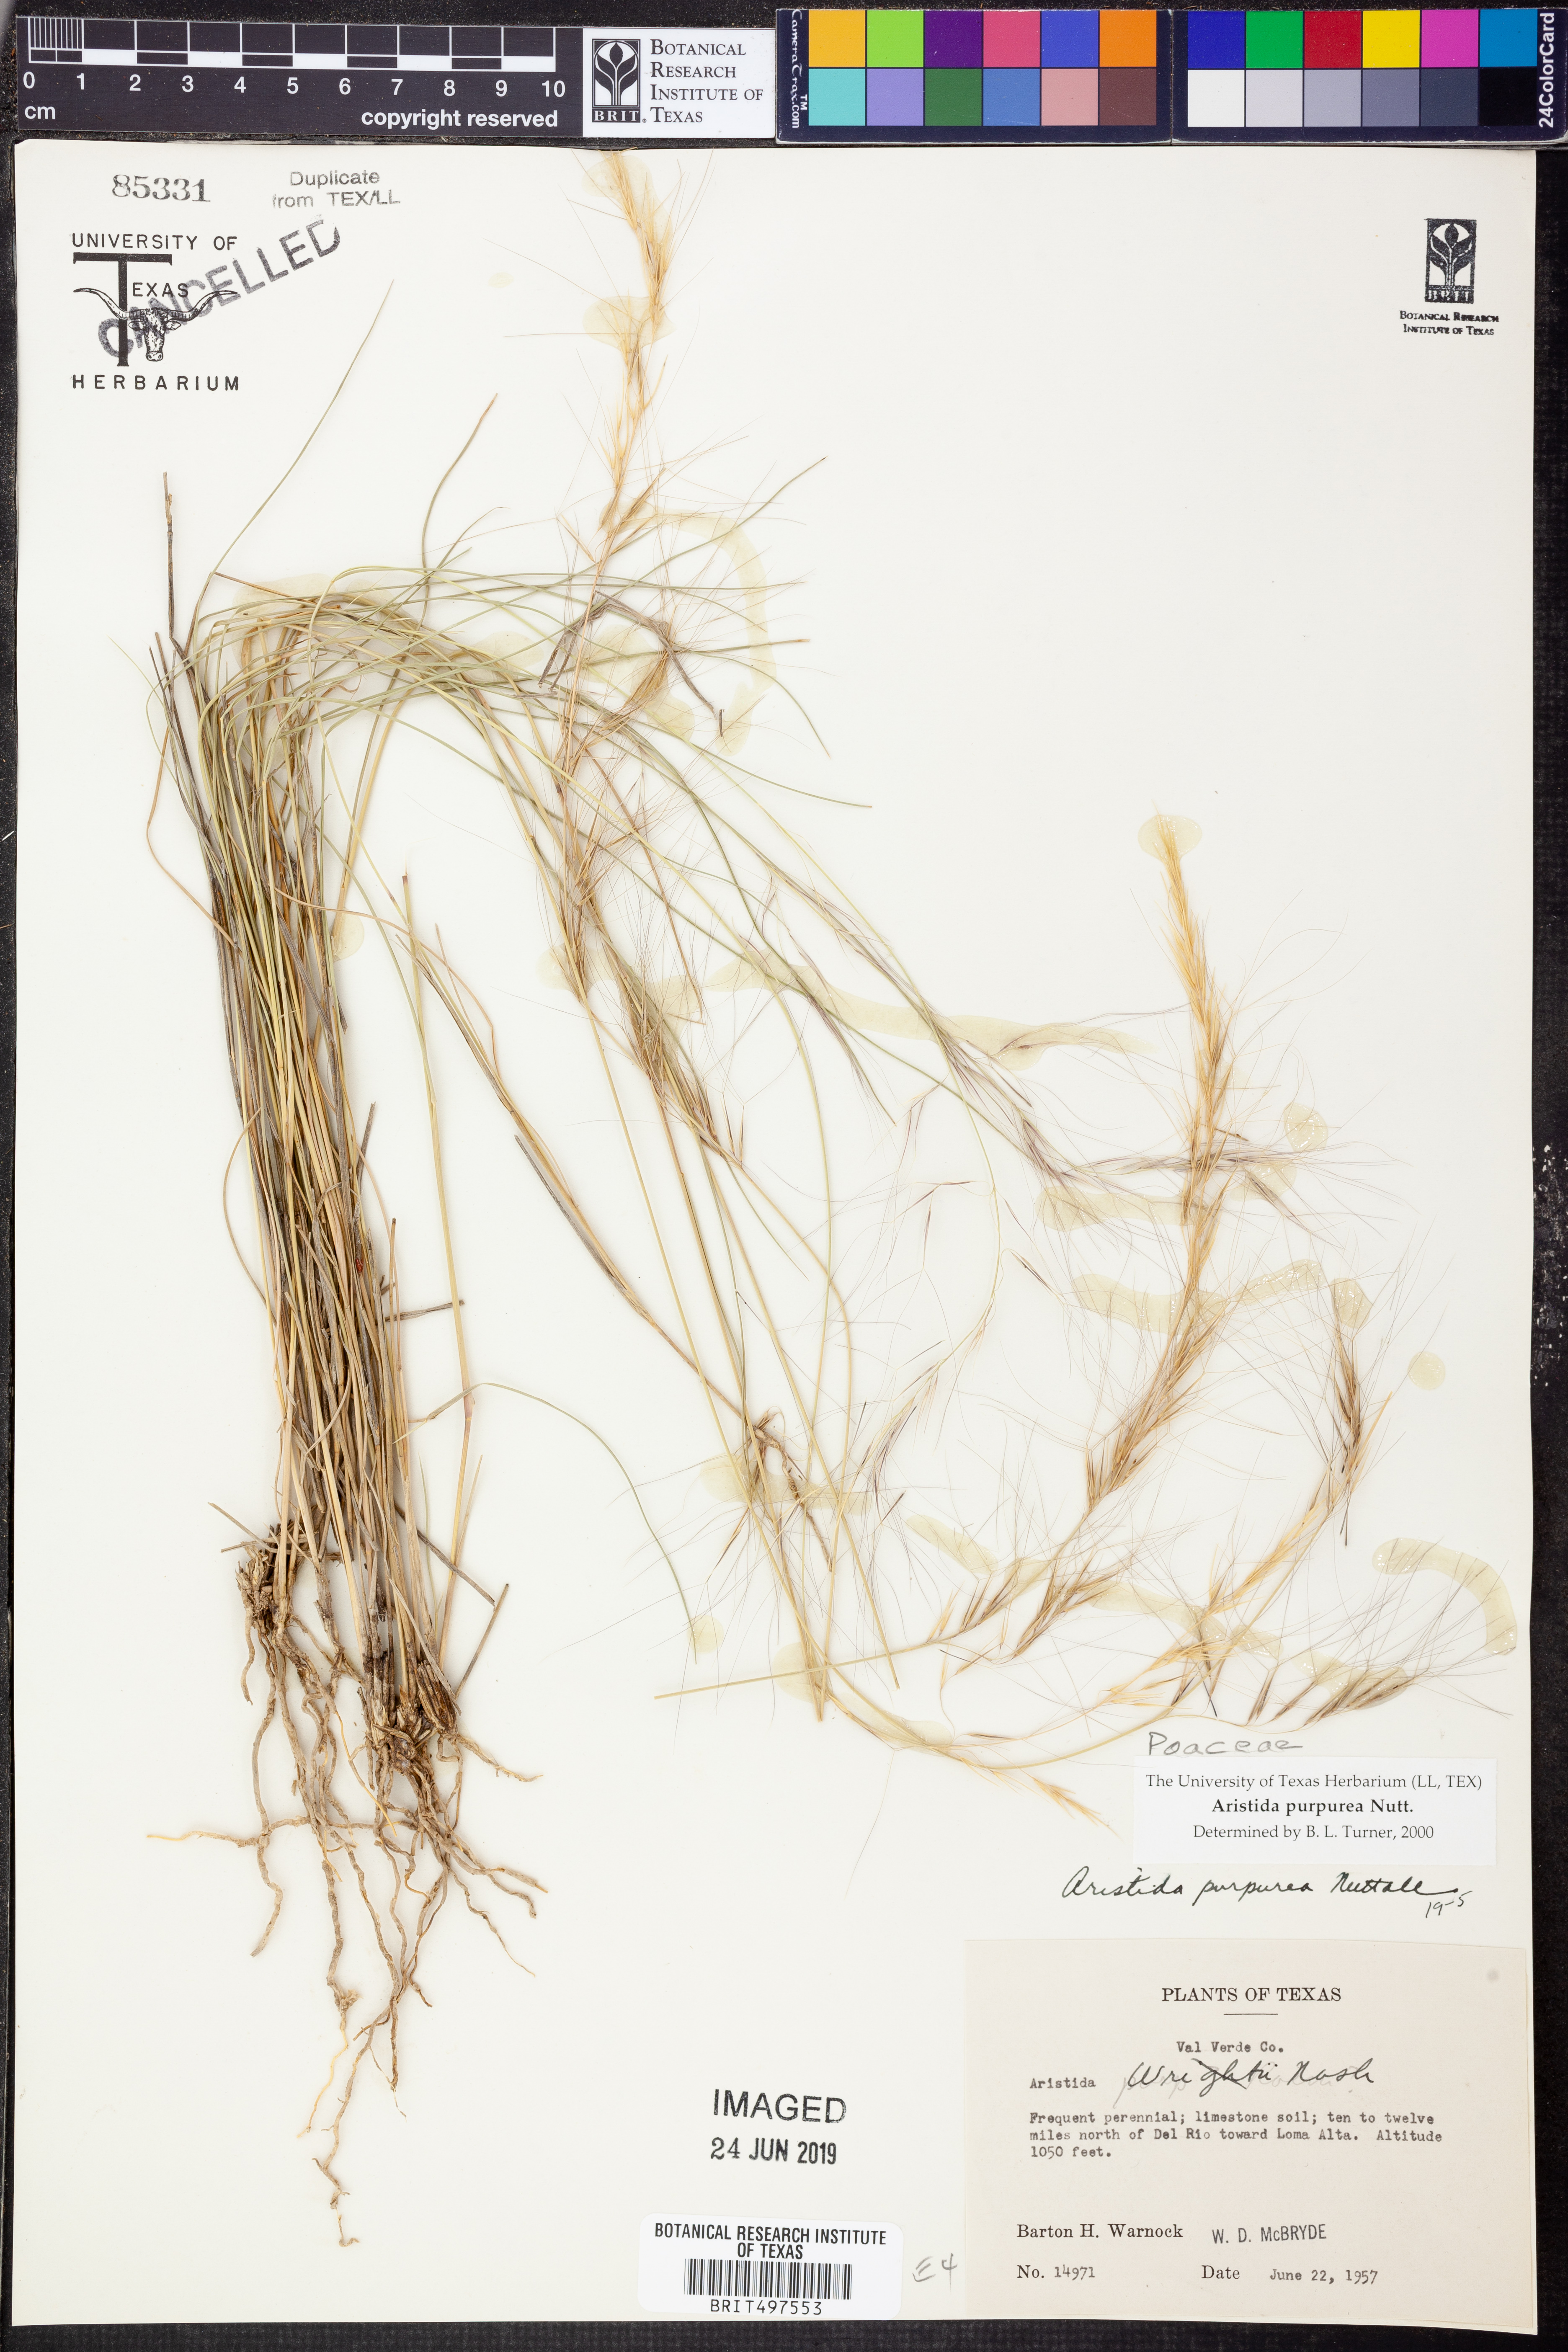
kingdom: Plantae
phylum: Tracheophyta
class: Liliopsida
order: Poales
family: Poaceae
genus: Aristida
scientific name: Aristida purpurea
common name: Purple threeawn
